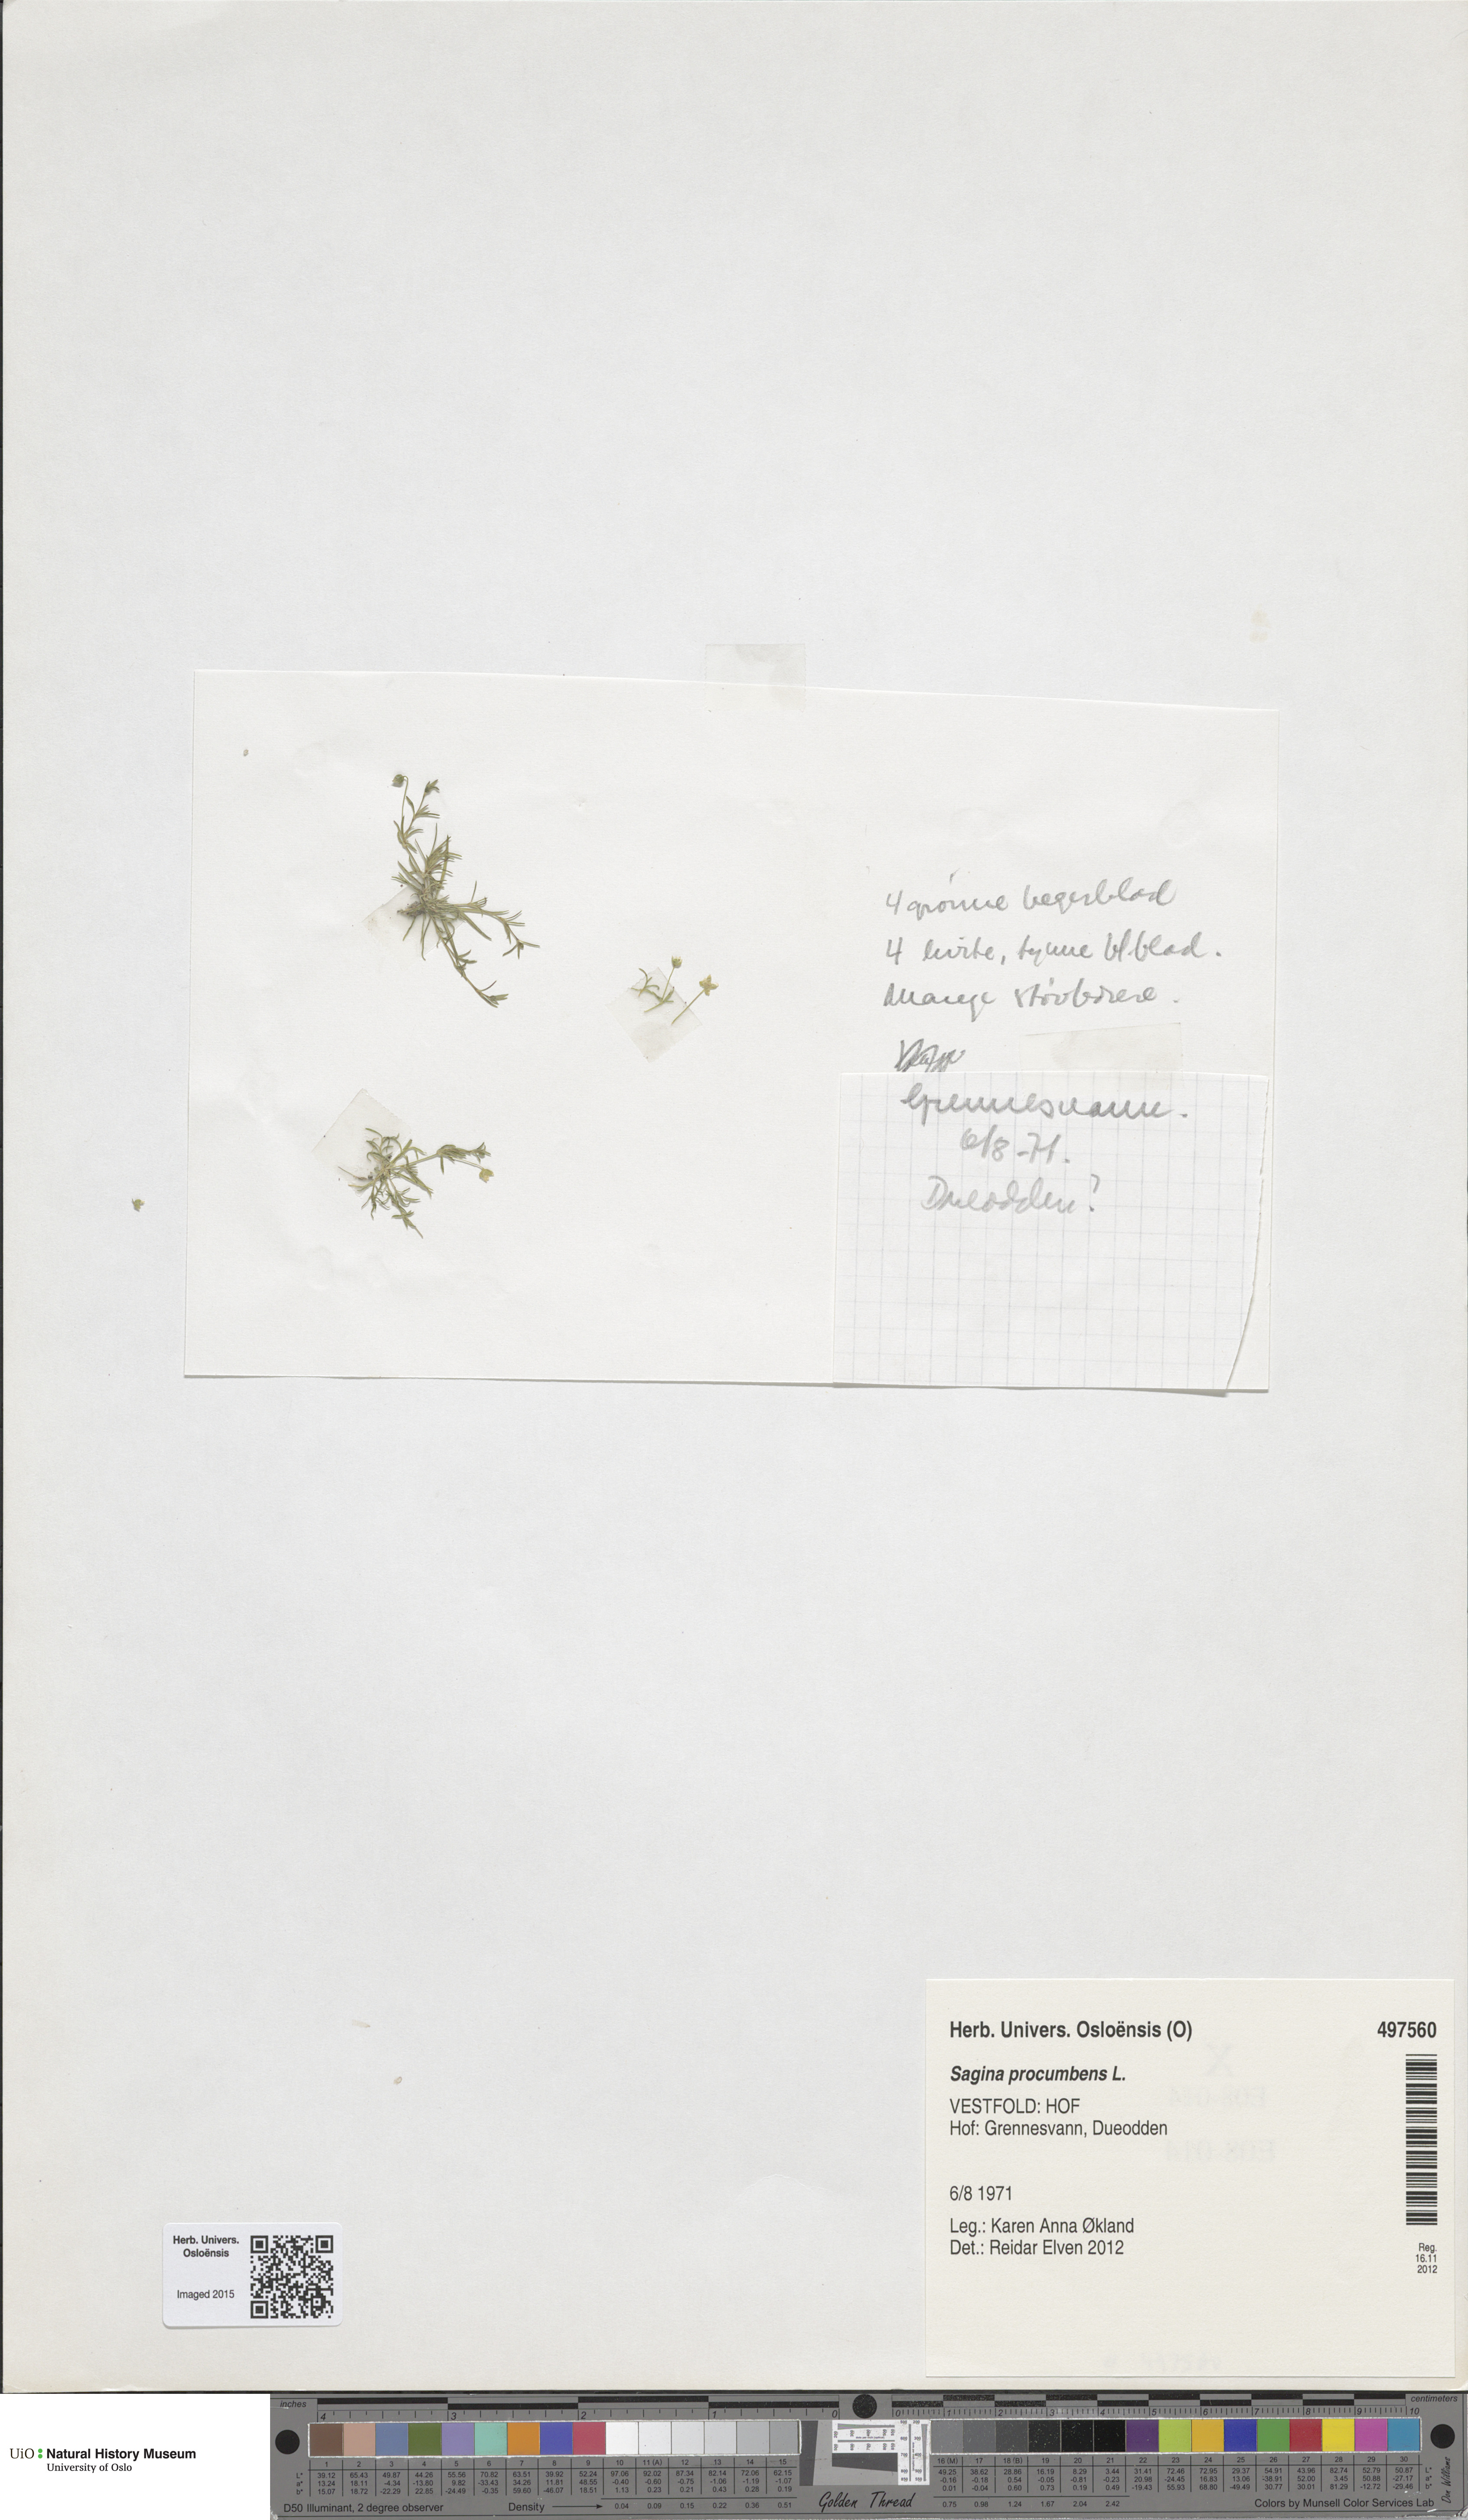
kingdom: Plantae
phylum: Tracheophyta
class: Magnoliopsida
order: Caryophyllales
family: Caryophyllaceae
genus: Sagina
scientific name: Sagina procumbens
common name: Procumbent pearlwort
